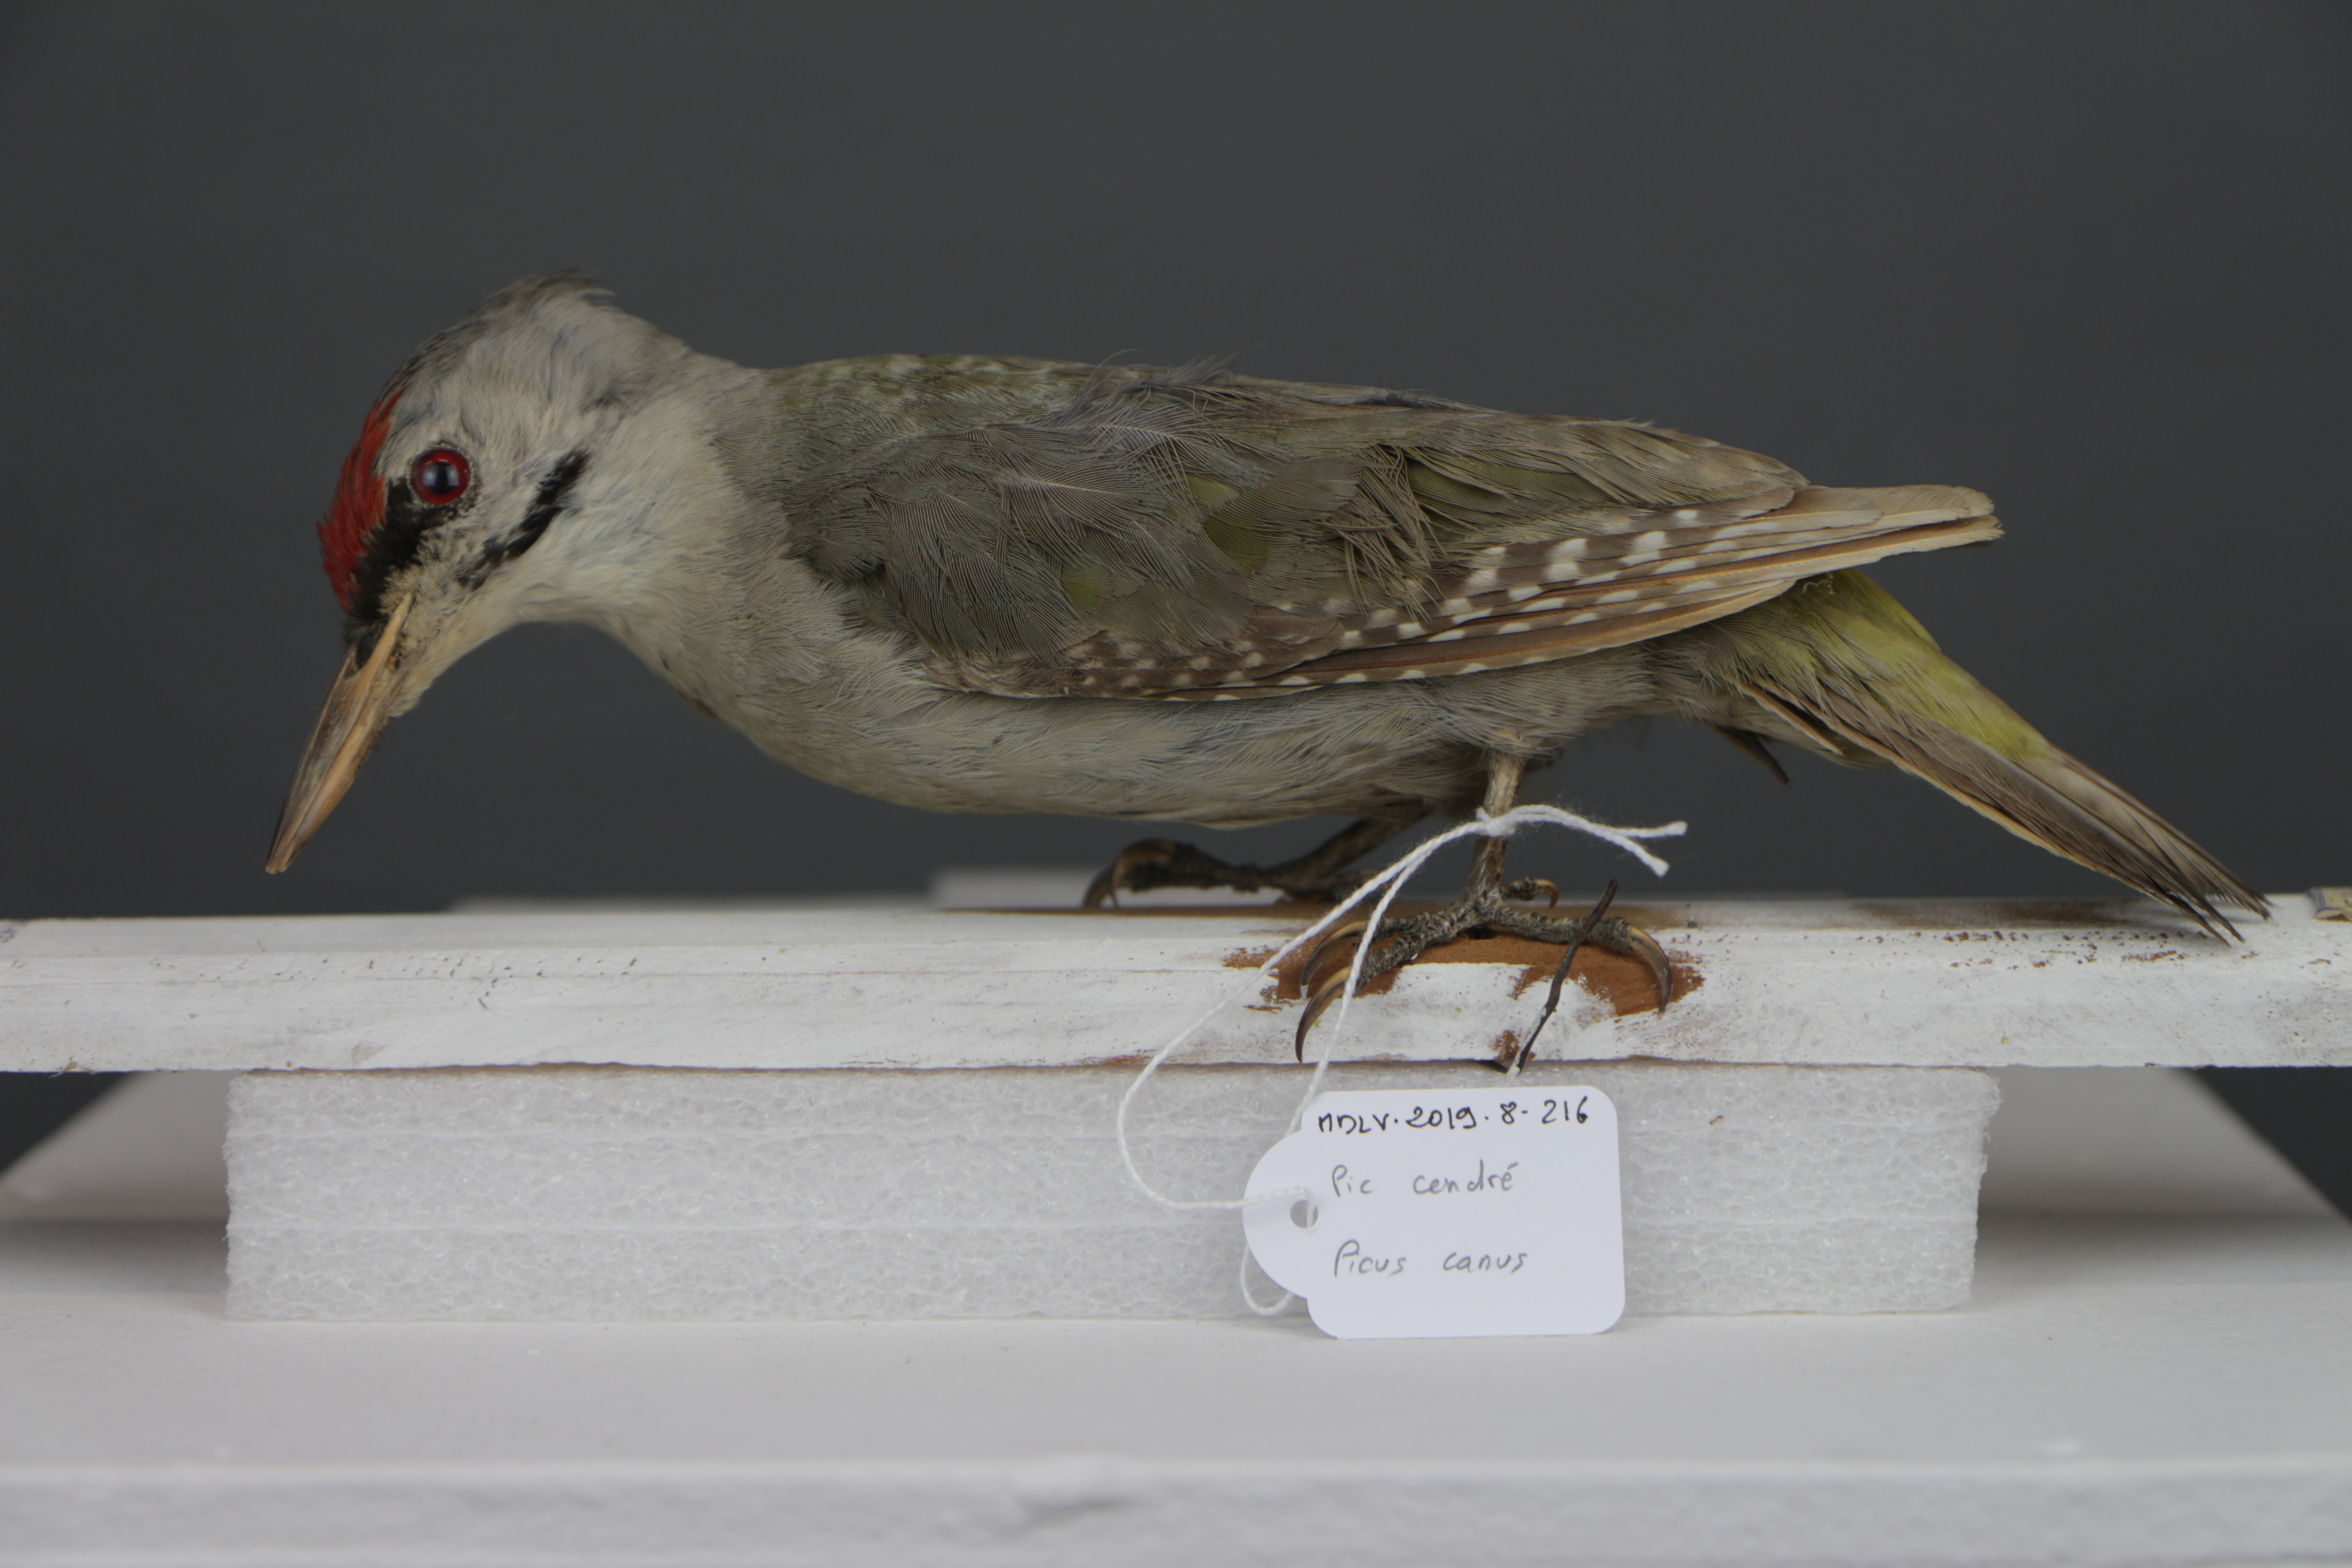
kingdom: Animalia
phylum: Chordata
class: Aves
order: Piciformes
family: Picidae
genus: Picus
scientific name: Picus canus
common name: Grey-headed woodpecker
